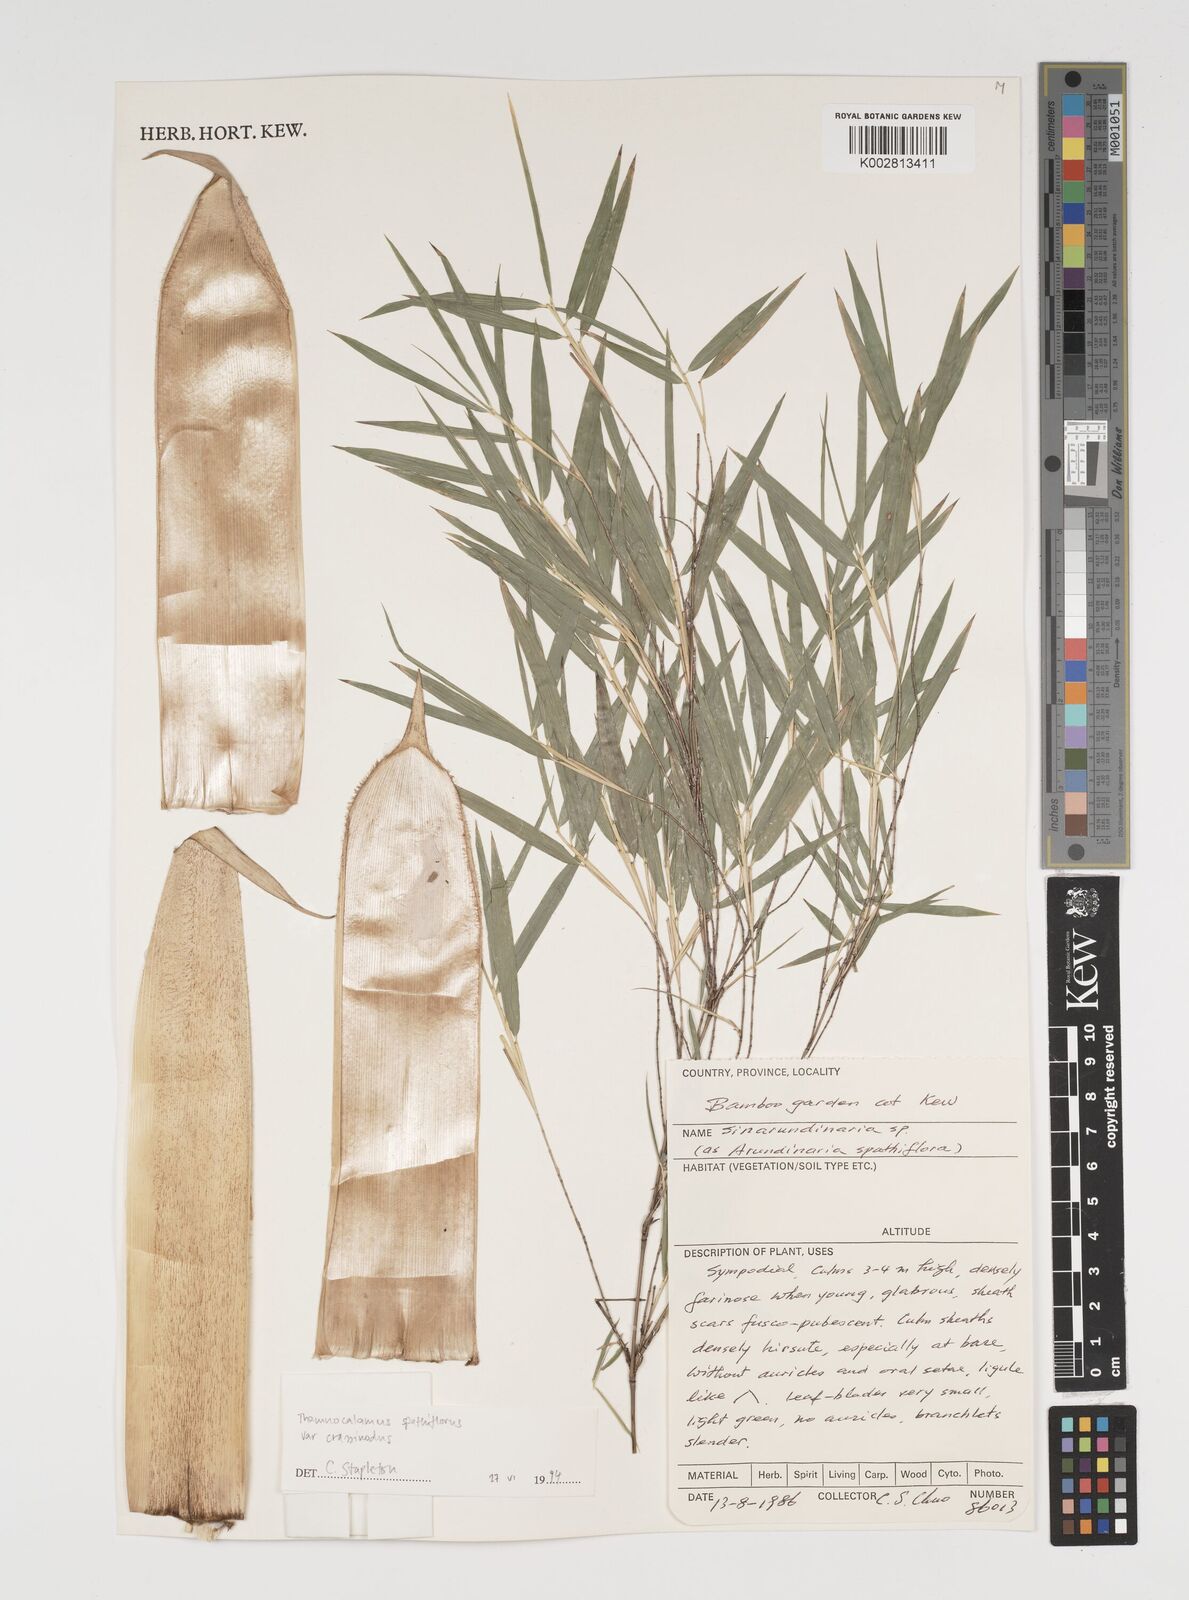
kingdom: Plantae
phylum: Tracheophyta
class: Liliopsida
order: Poales
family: Poaceae
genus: Thamnocalamus
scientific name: Thamnocalamus crassinodus
